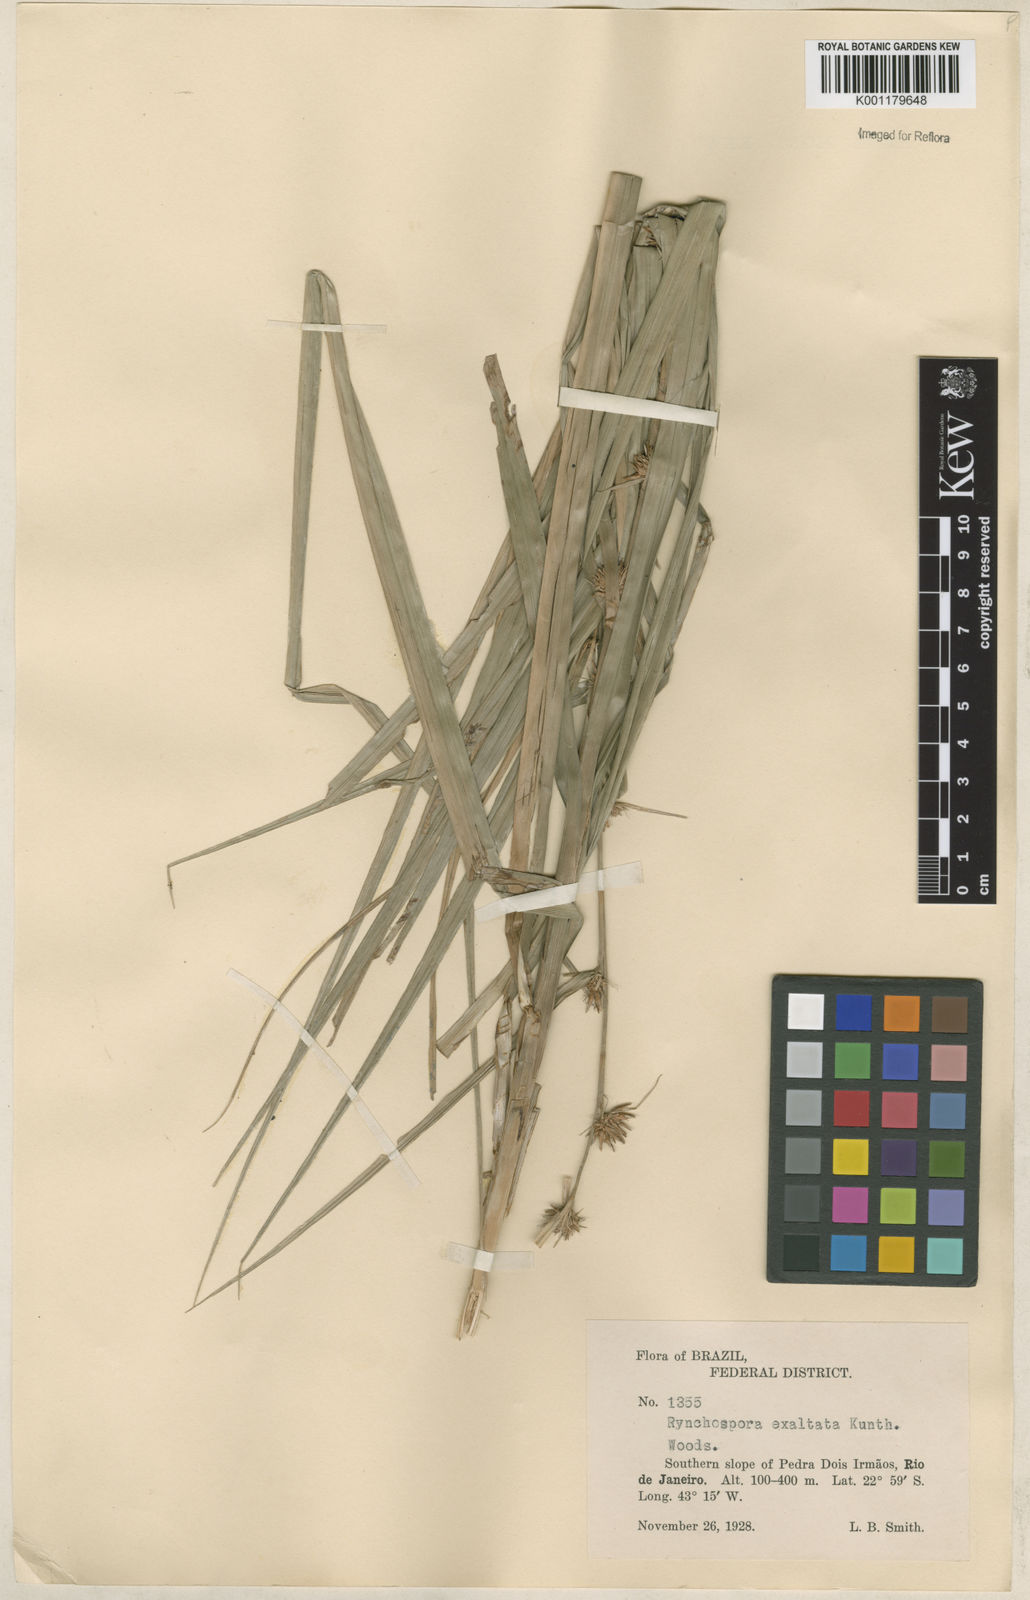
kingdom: Plantae
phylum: Tracheophyta
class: Liliopsida
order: Poales
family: Cyperaceae
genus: Rhynchospora
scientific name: Rhynchospora exaltata
